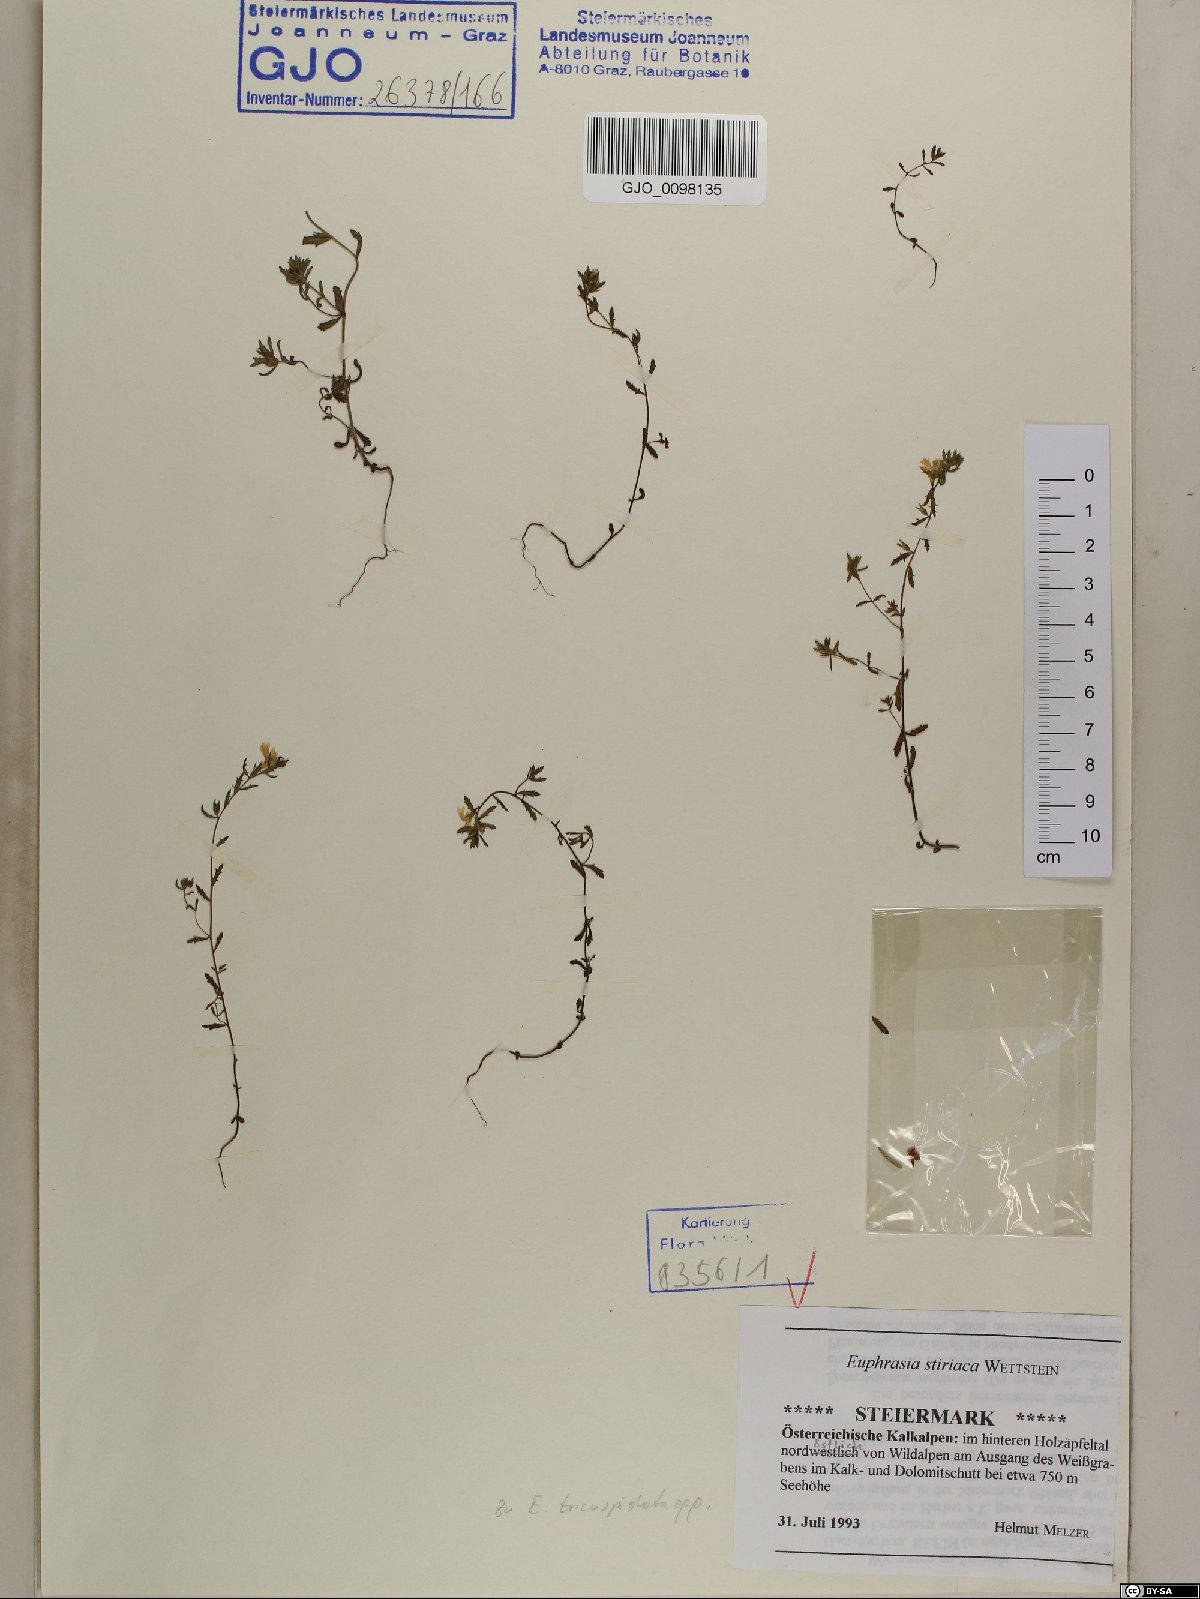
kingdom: Plantae
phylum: Tracheophyta
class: Magnoliopsida
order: Lamiales
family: Orobanchaceae
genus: Euphrasia
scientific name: Euphrasia cuspidata
